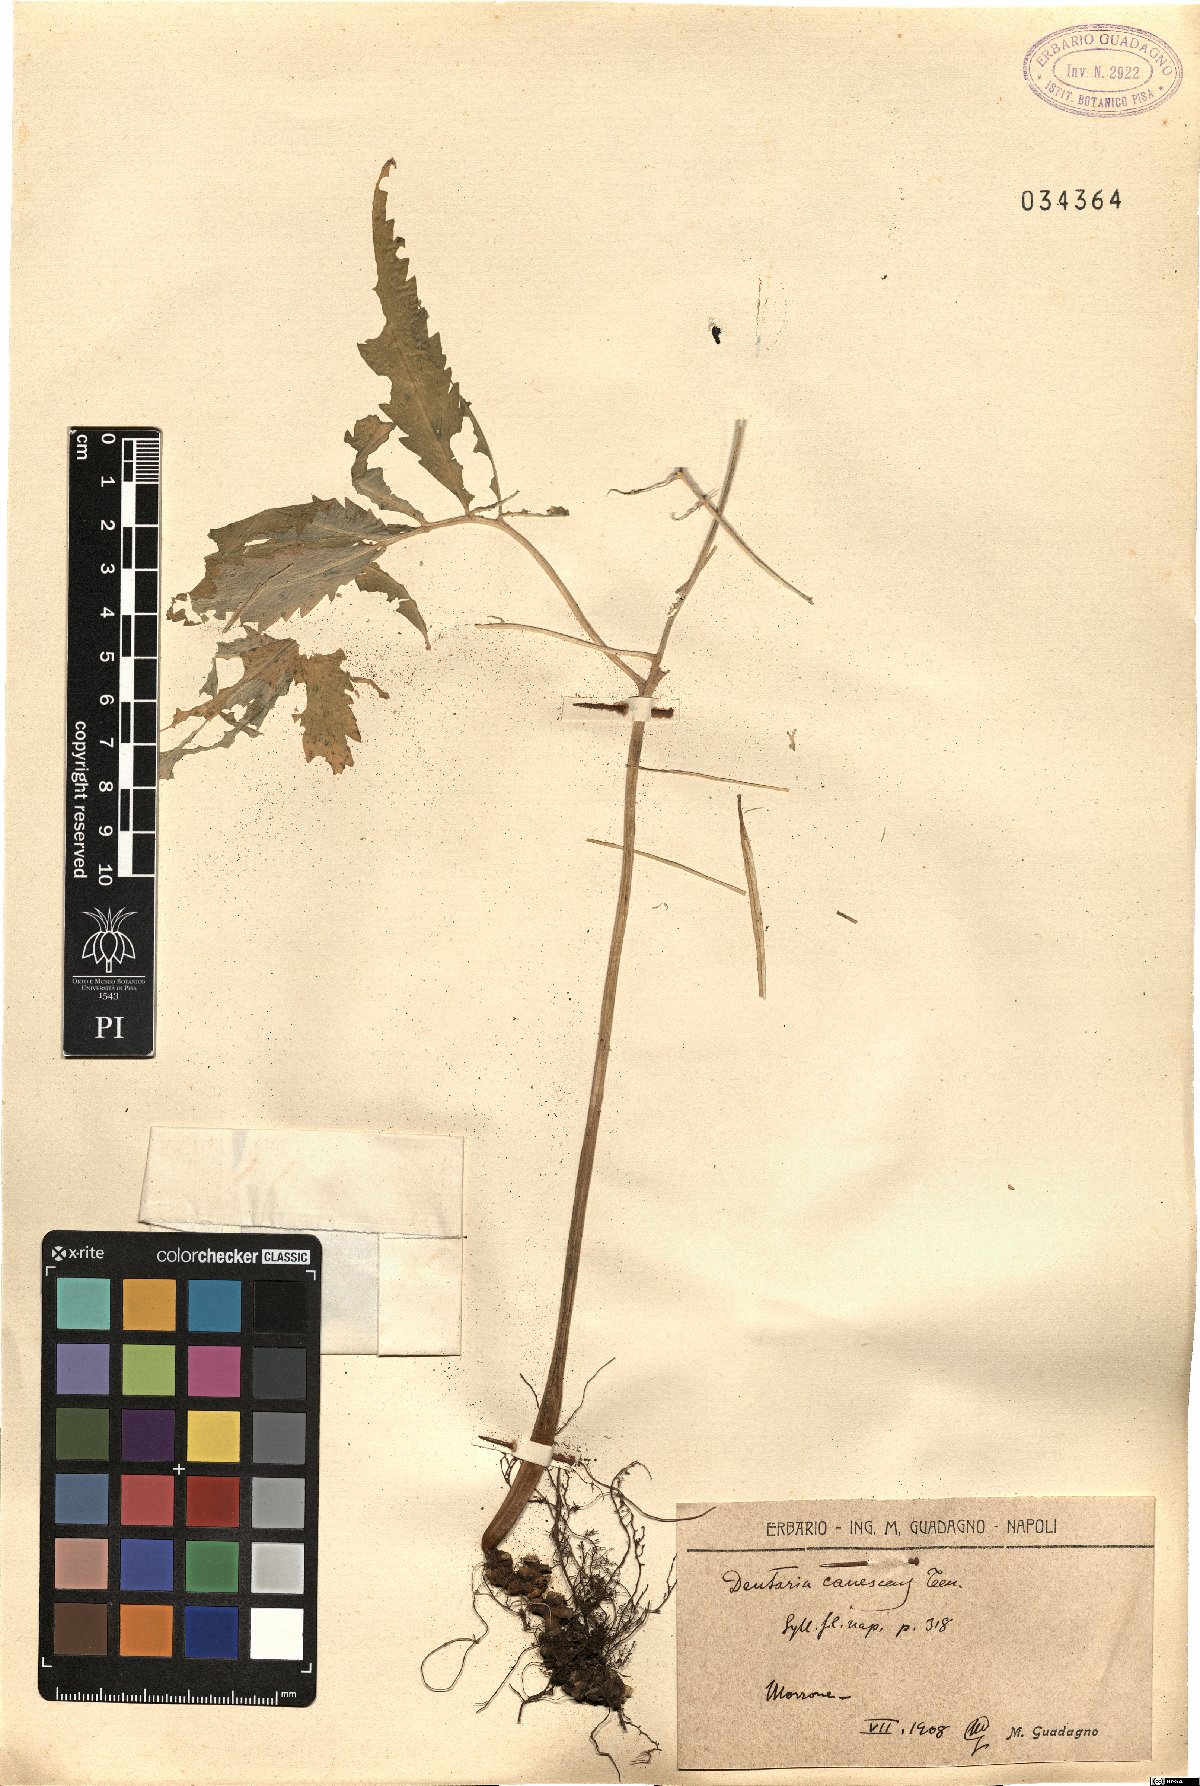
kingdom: Plantae
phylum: Tracheophyta
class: Magnoliopsida
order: Brassicales
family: Brassicaceae
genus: Cardamine
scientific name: Cardamine heptaphylla
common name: Pinnate coralroot
